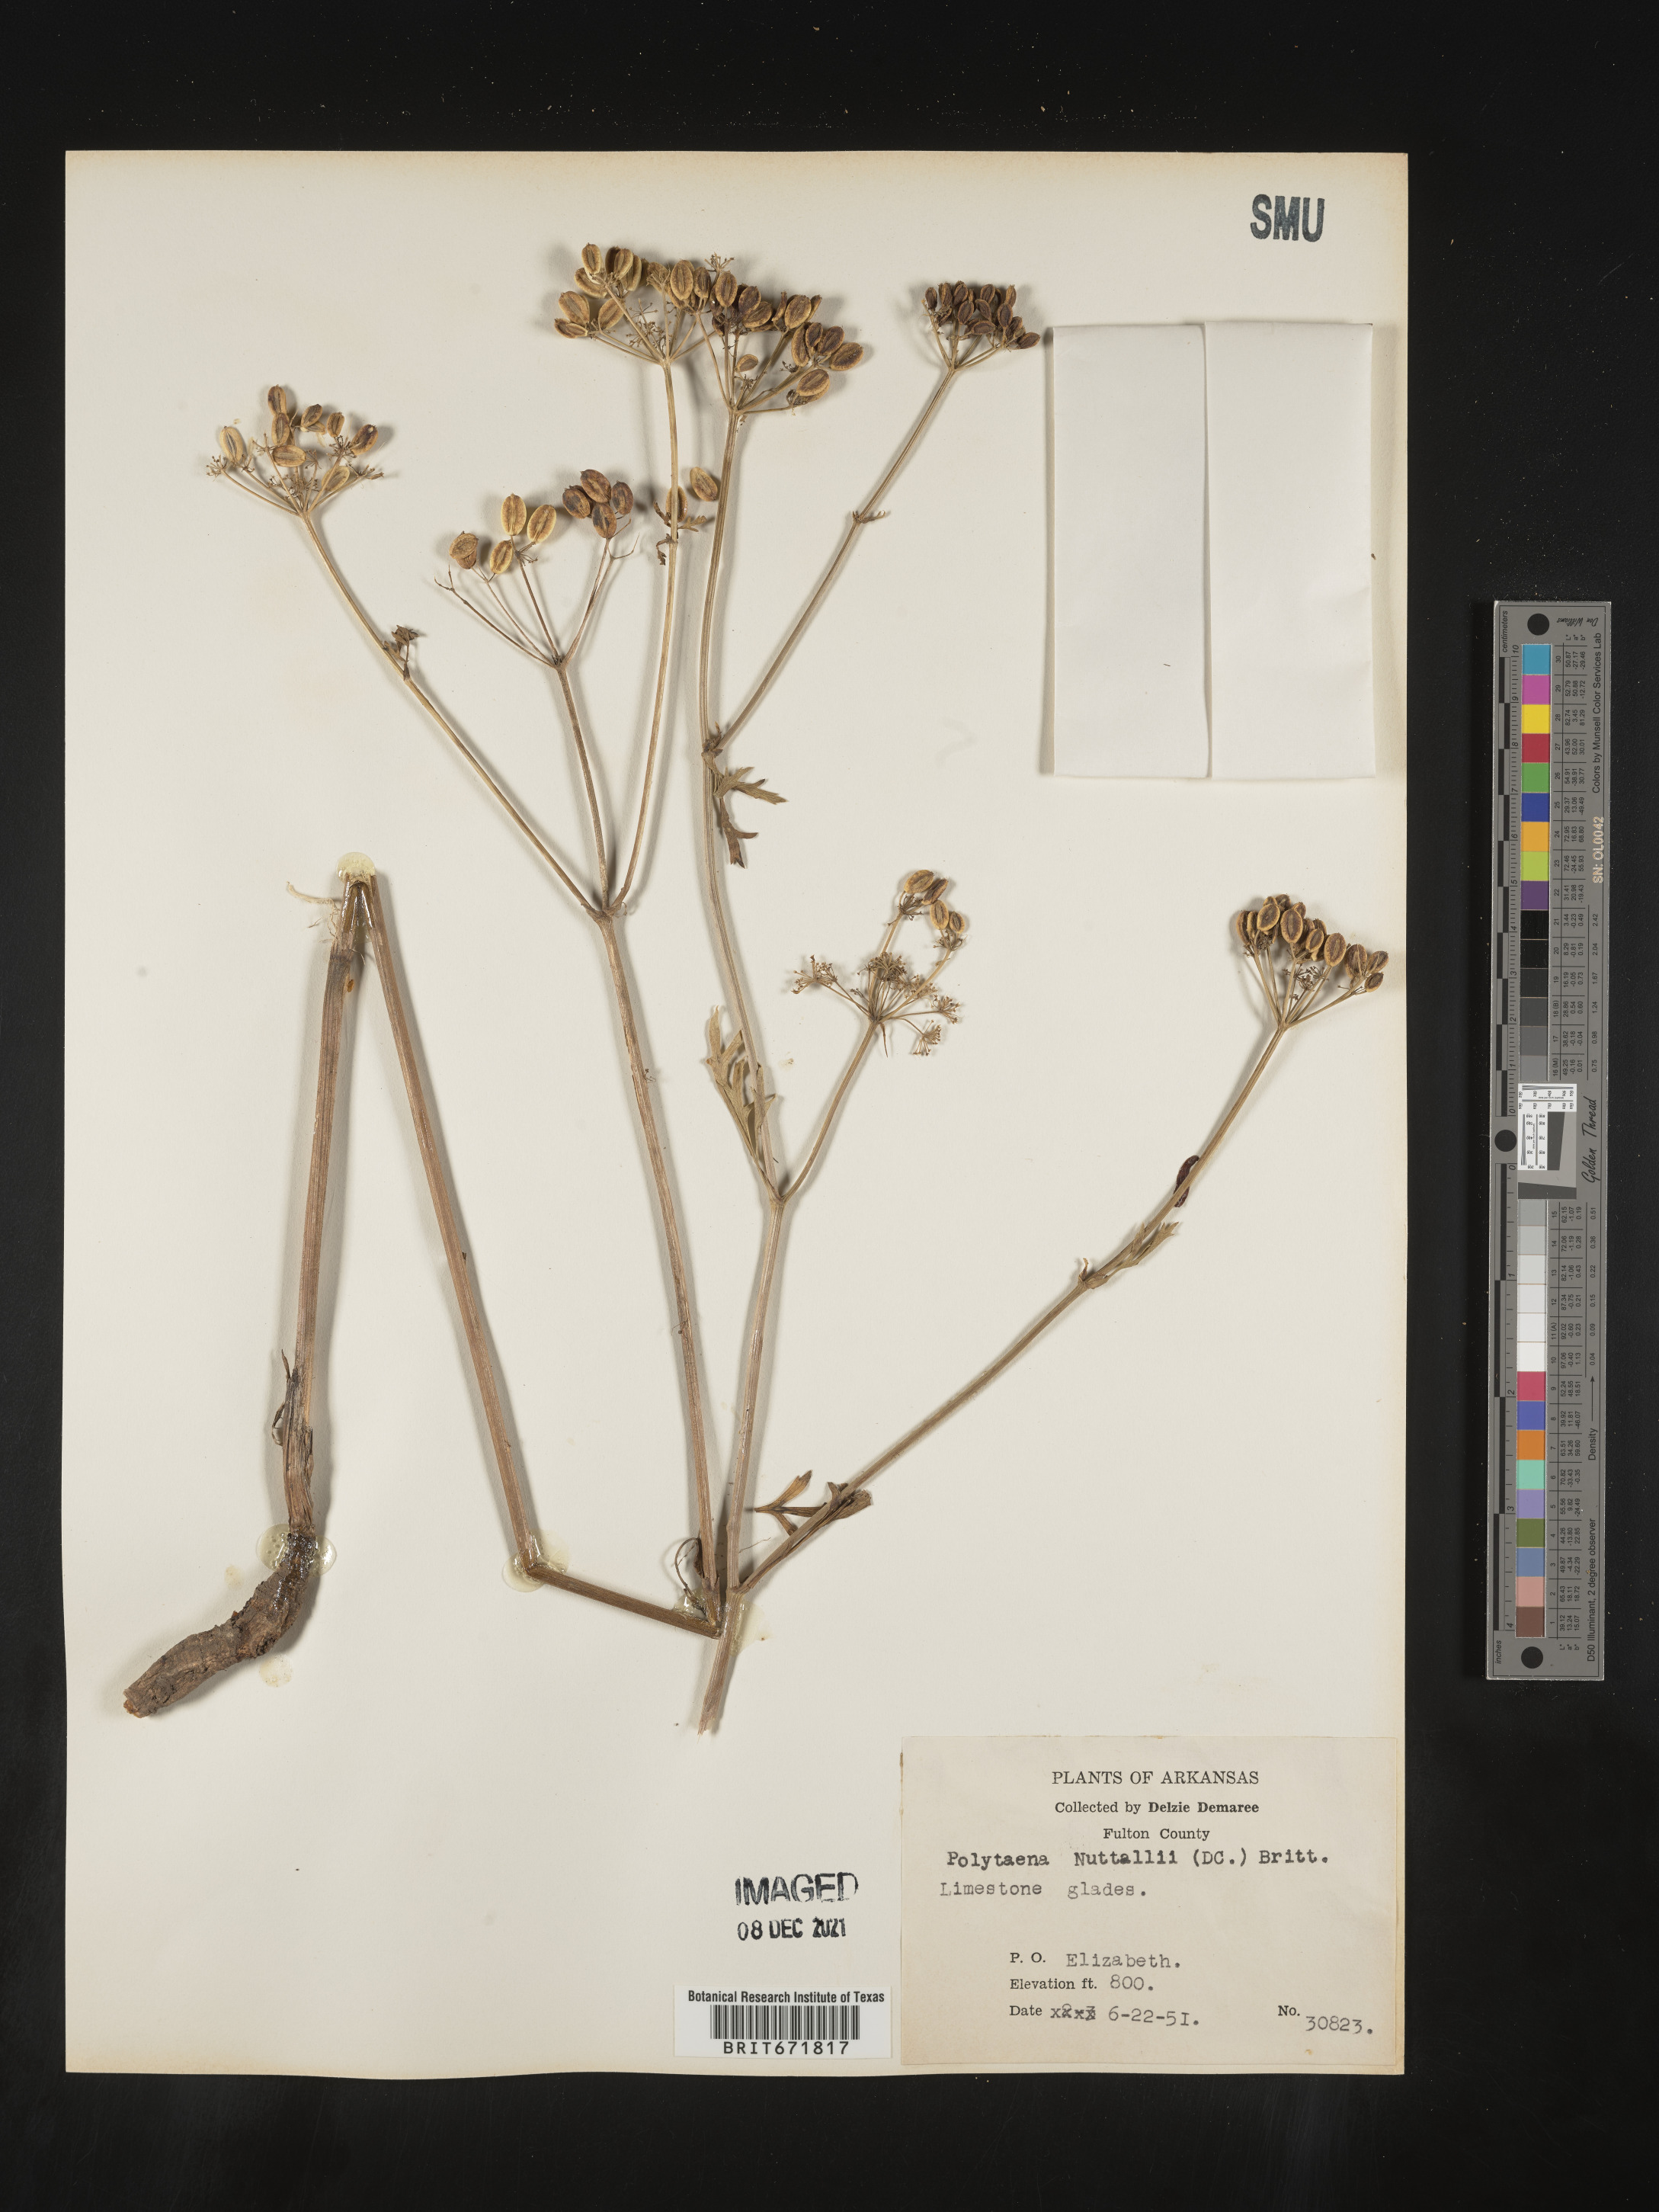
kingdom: Plantae
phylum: Tracheophyta
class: Magnoliopsida
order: Apiales
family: Apiaceae
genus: Polytaenia
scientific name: Polytaenia nuttallii
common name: Prairie-parsley
